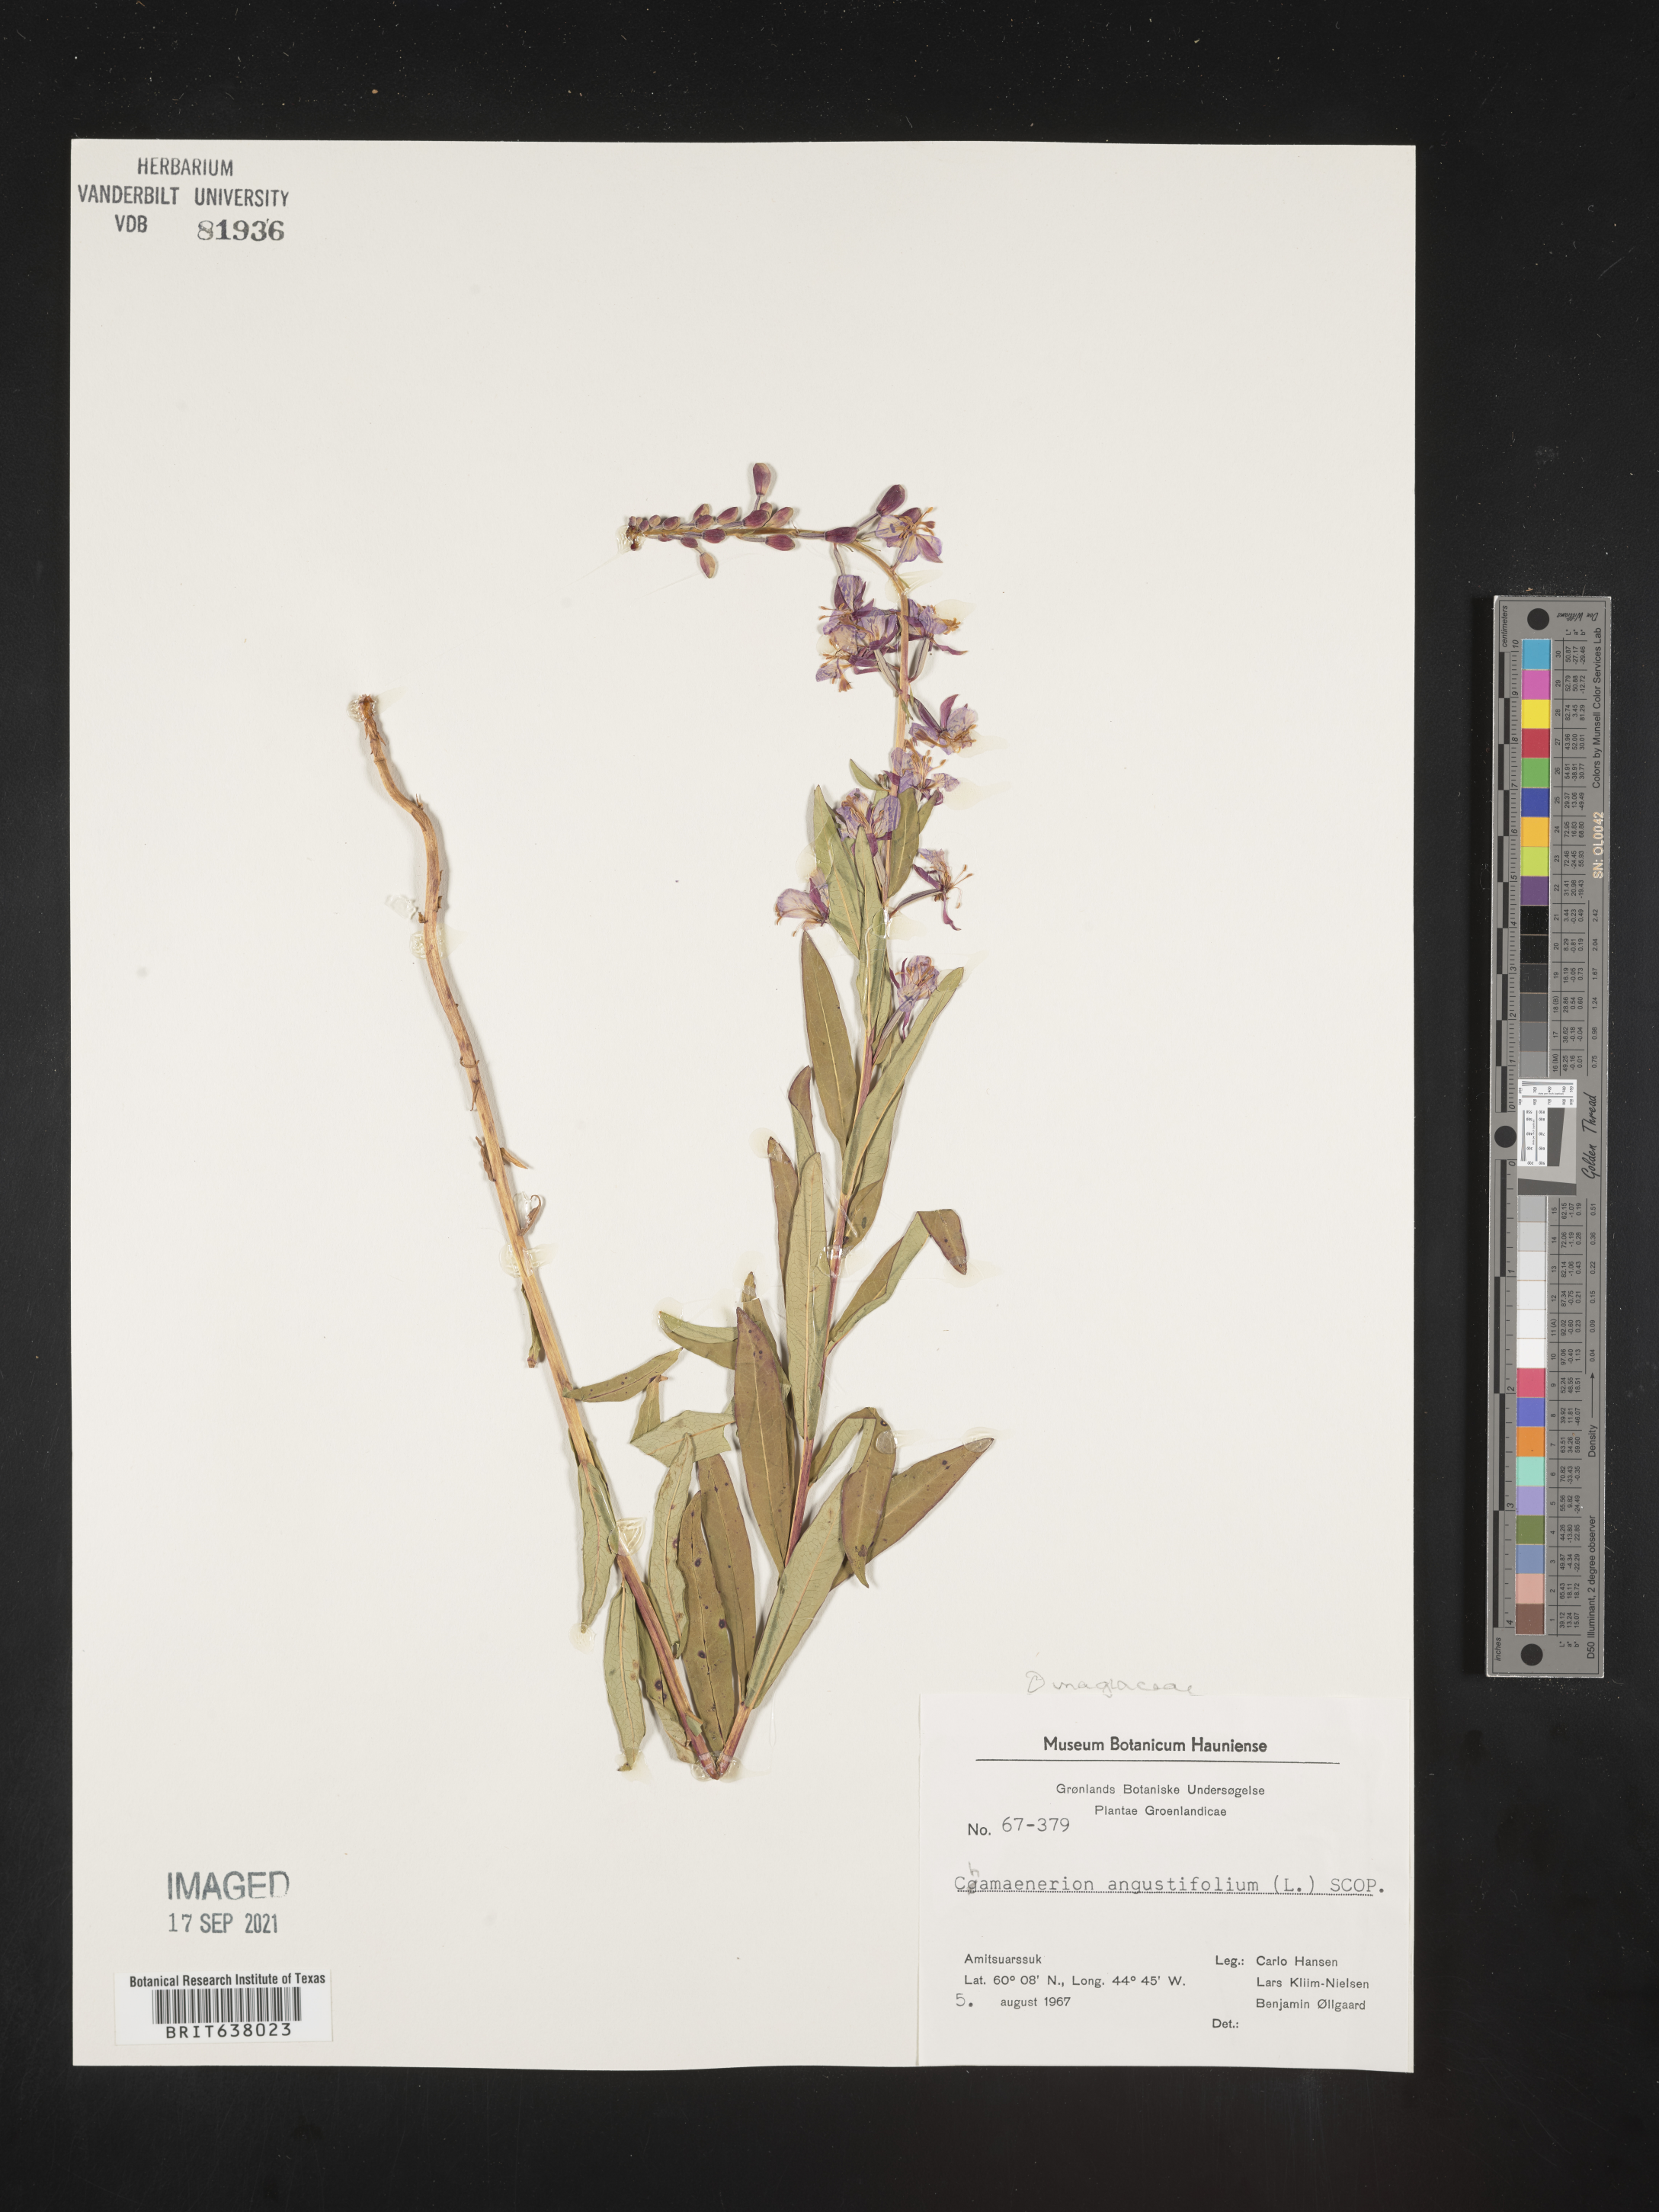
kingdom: Plantae
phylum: Tracheophyta
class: Magnoliopsida
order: Myrtales
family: Onagraceae
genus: Chamaenerion
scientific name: Chamaenerion
